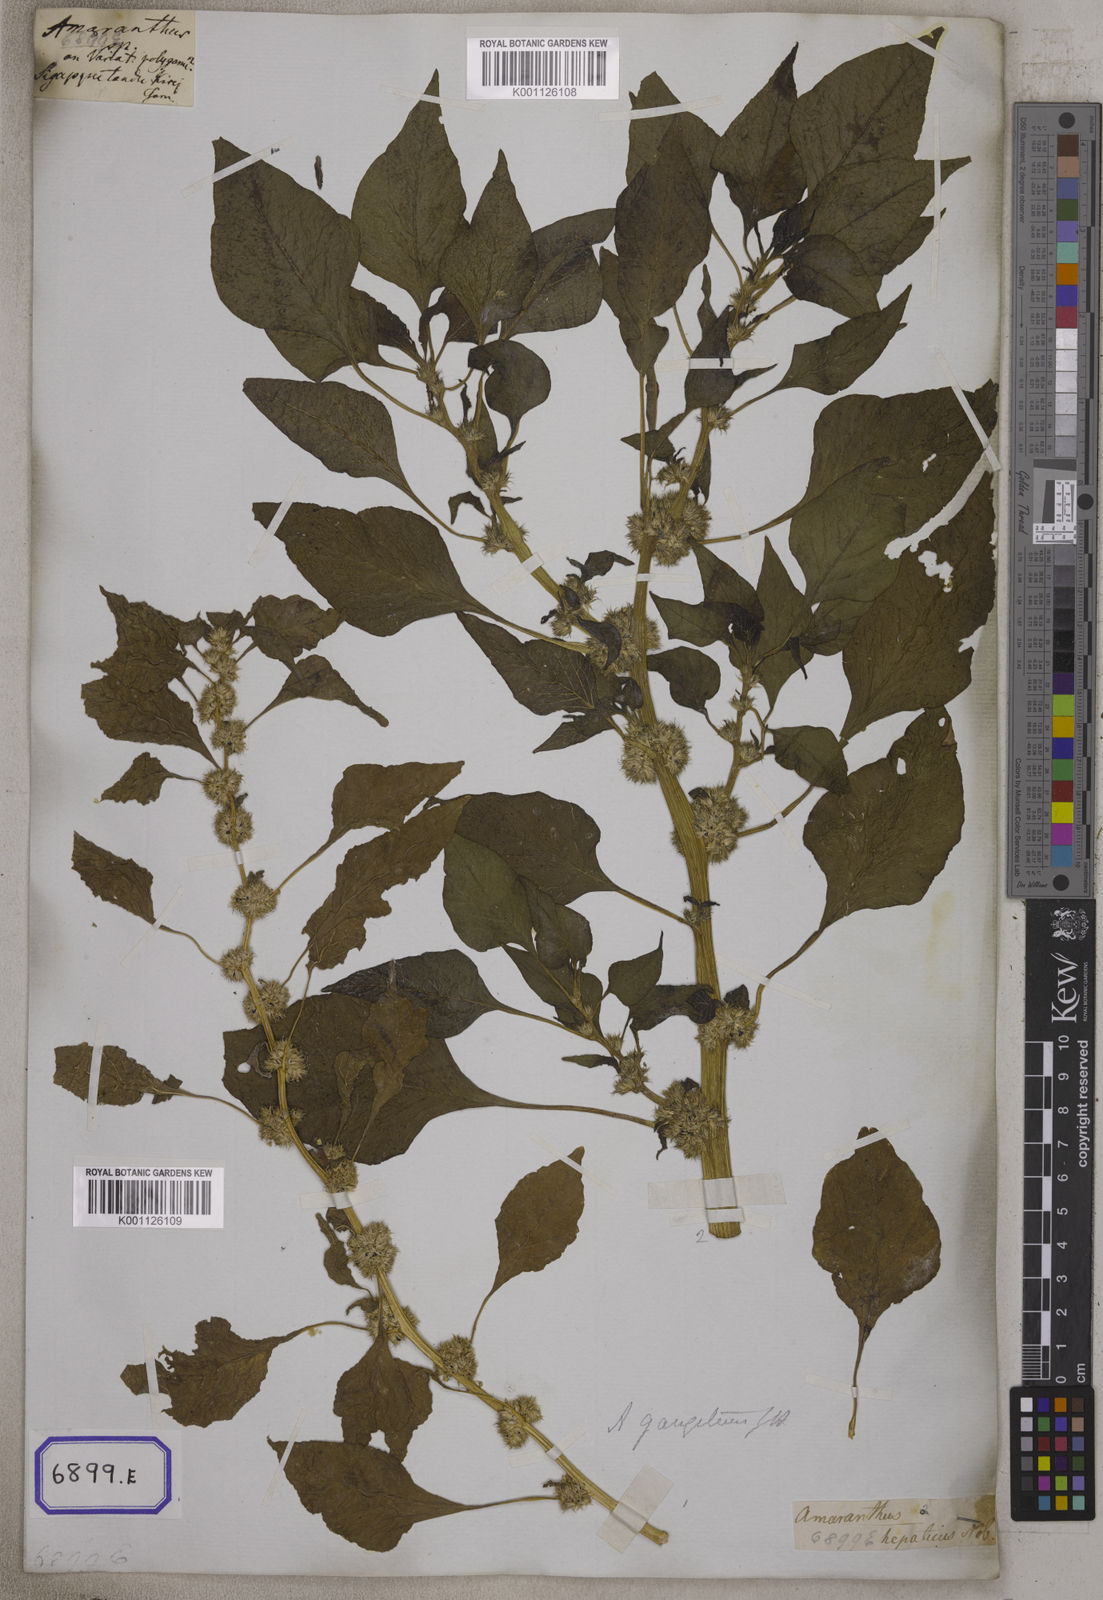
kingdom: Plantae
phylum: Tracheophyta
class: Magnoliopsida
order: Caryophyllales
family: Amaranthaceae
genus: Amaranthus
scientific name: Amaranthus
